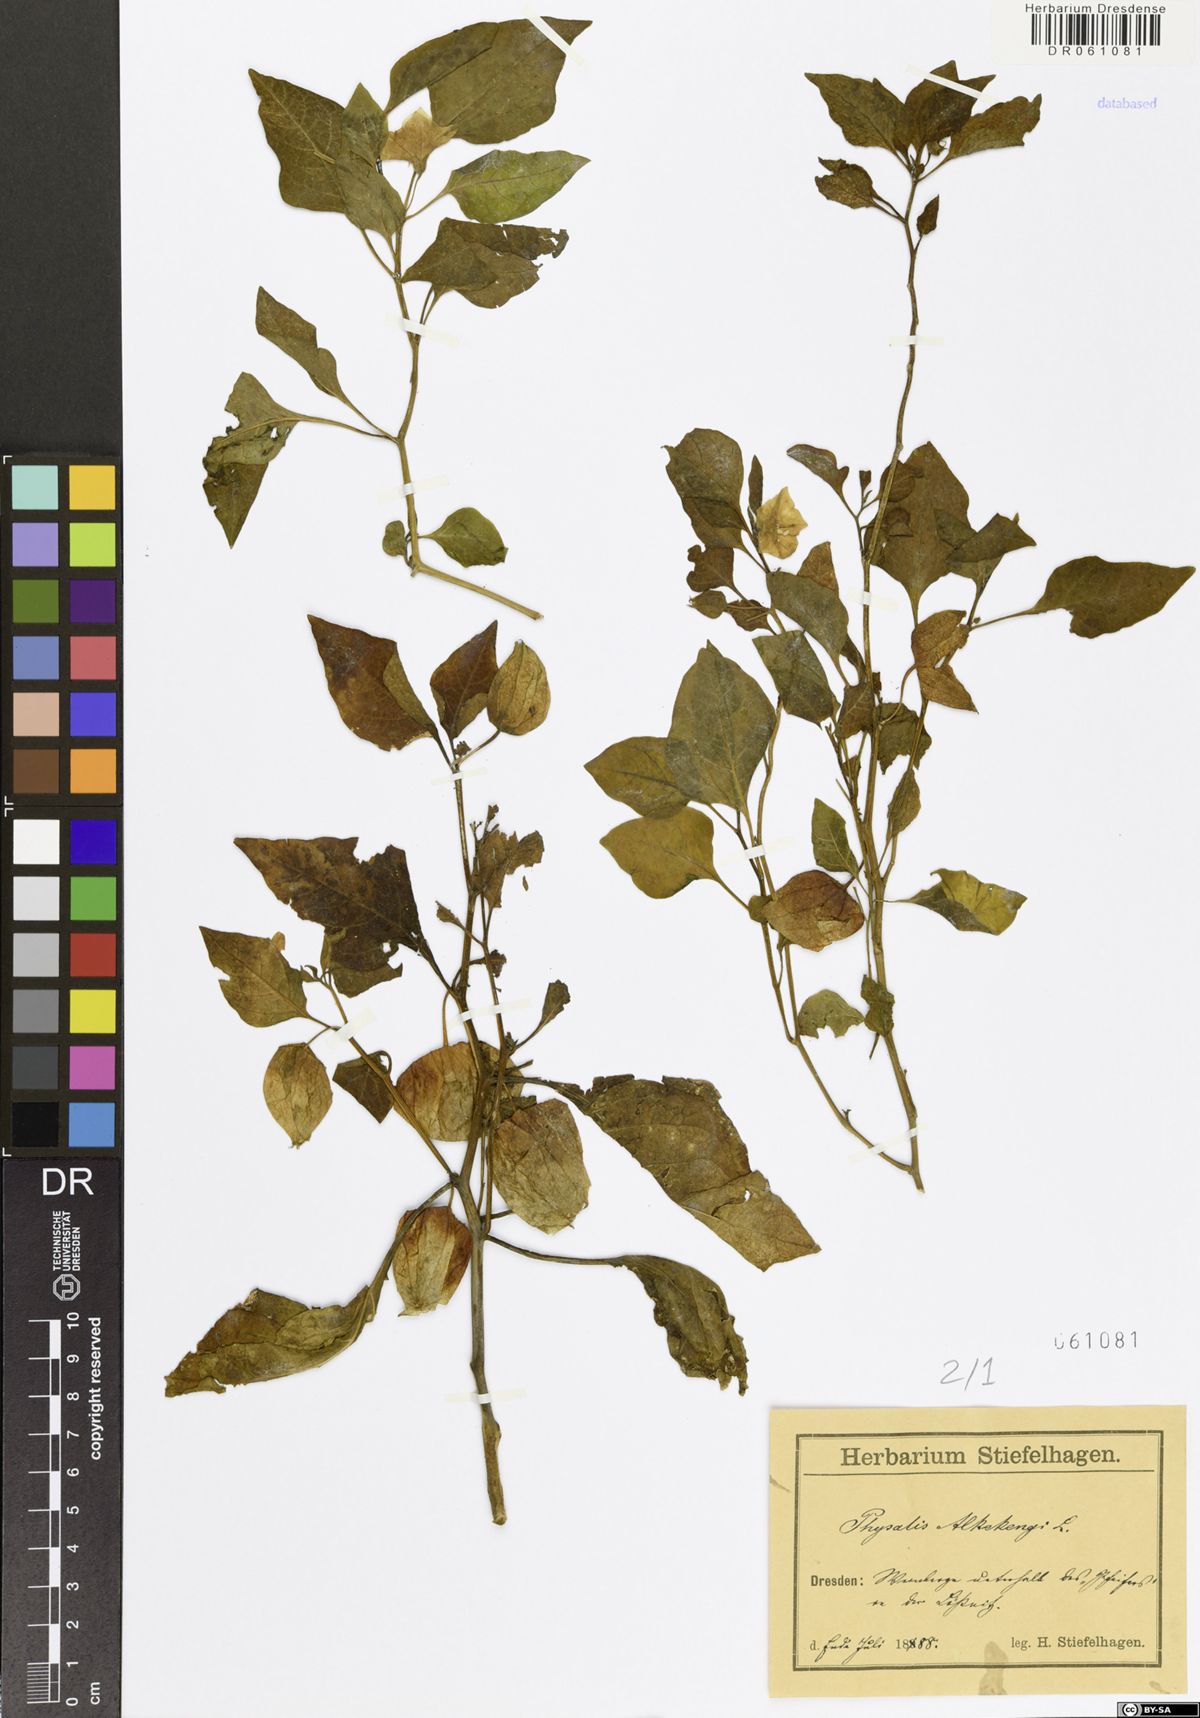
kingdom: Plantae
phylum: Tracheophyta
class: Magnoliopsida
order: Solanales
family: Solanaceae
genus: Alkekengi
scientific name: Alkekengi officinarum
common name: Japanese-lantern
